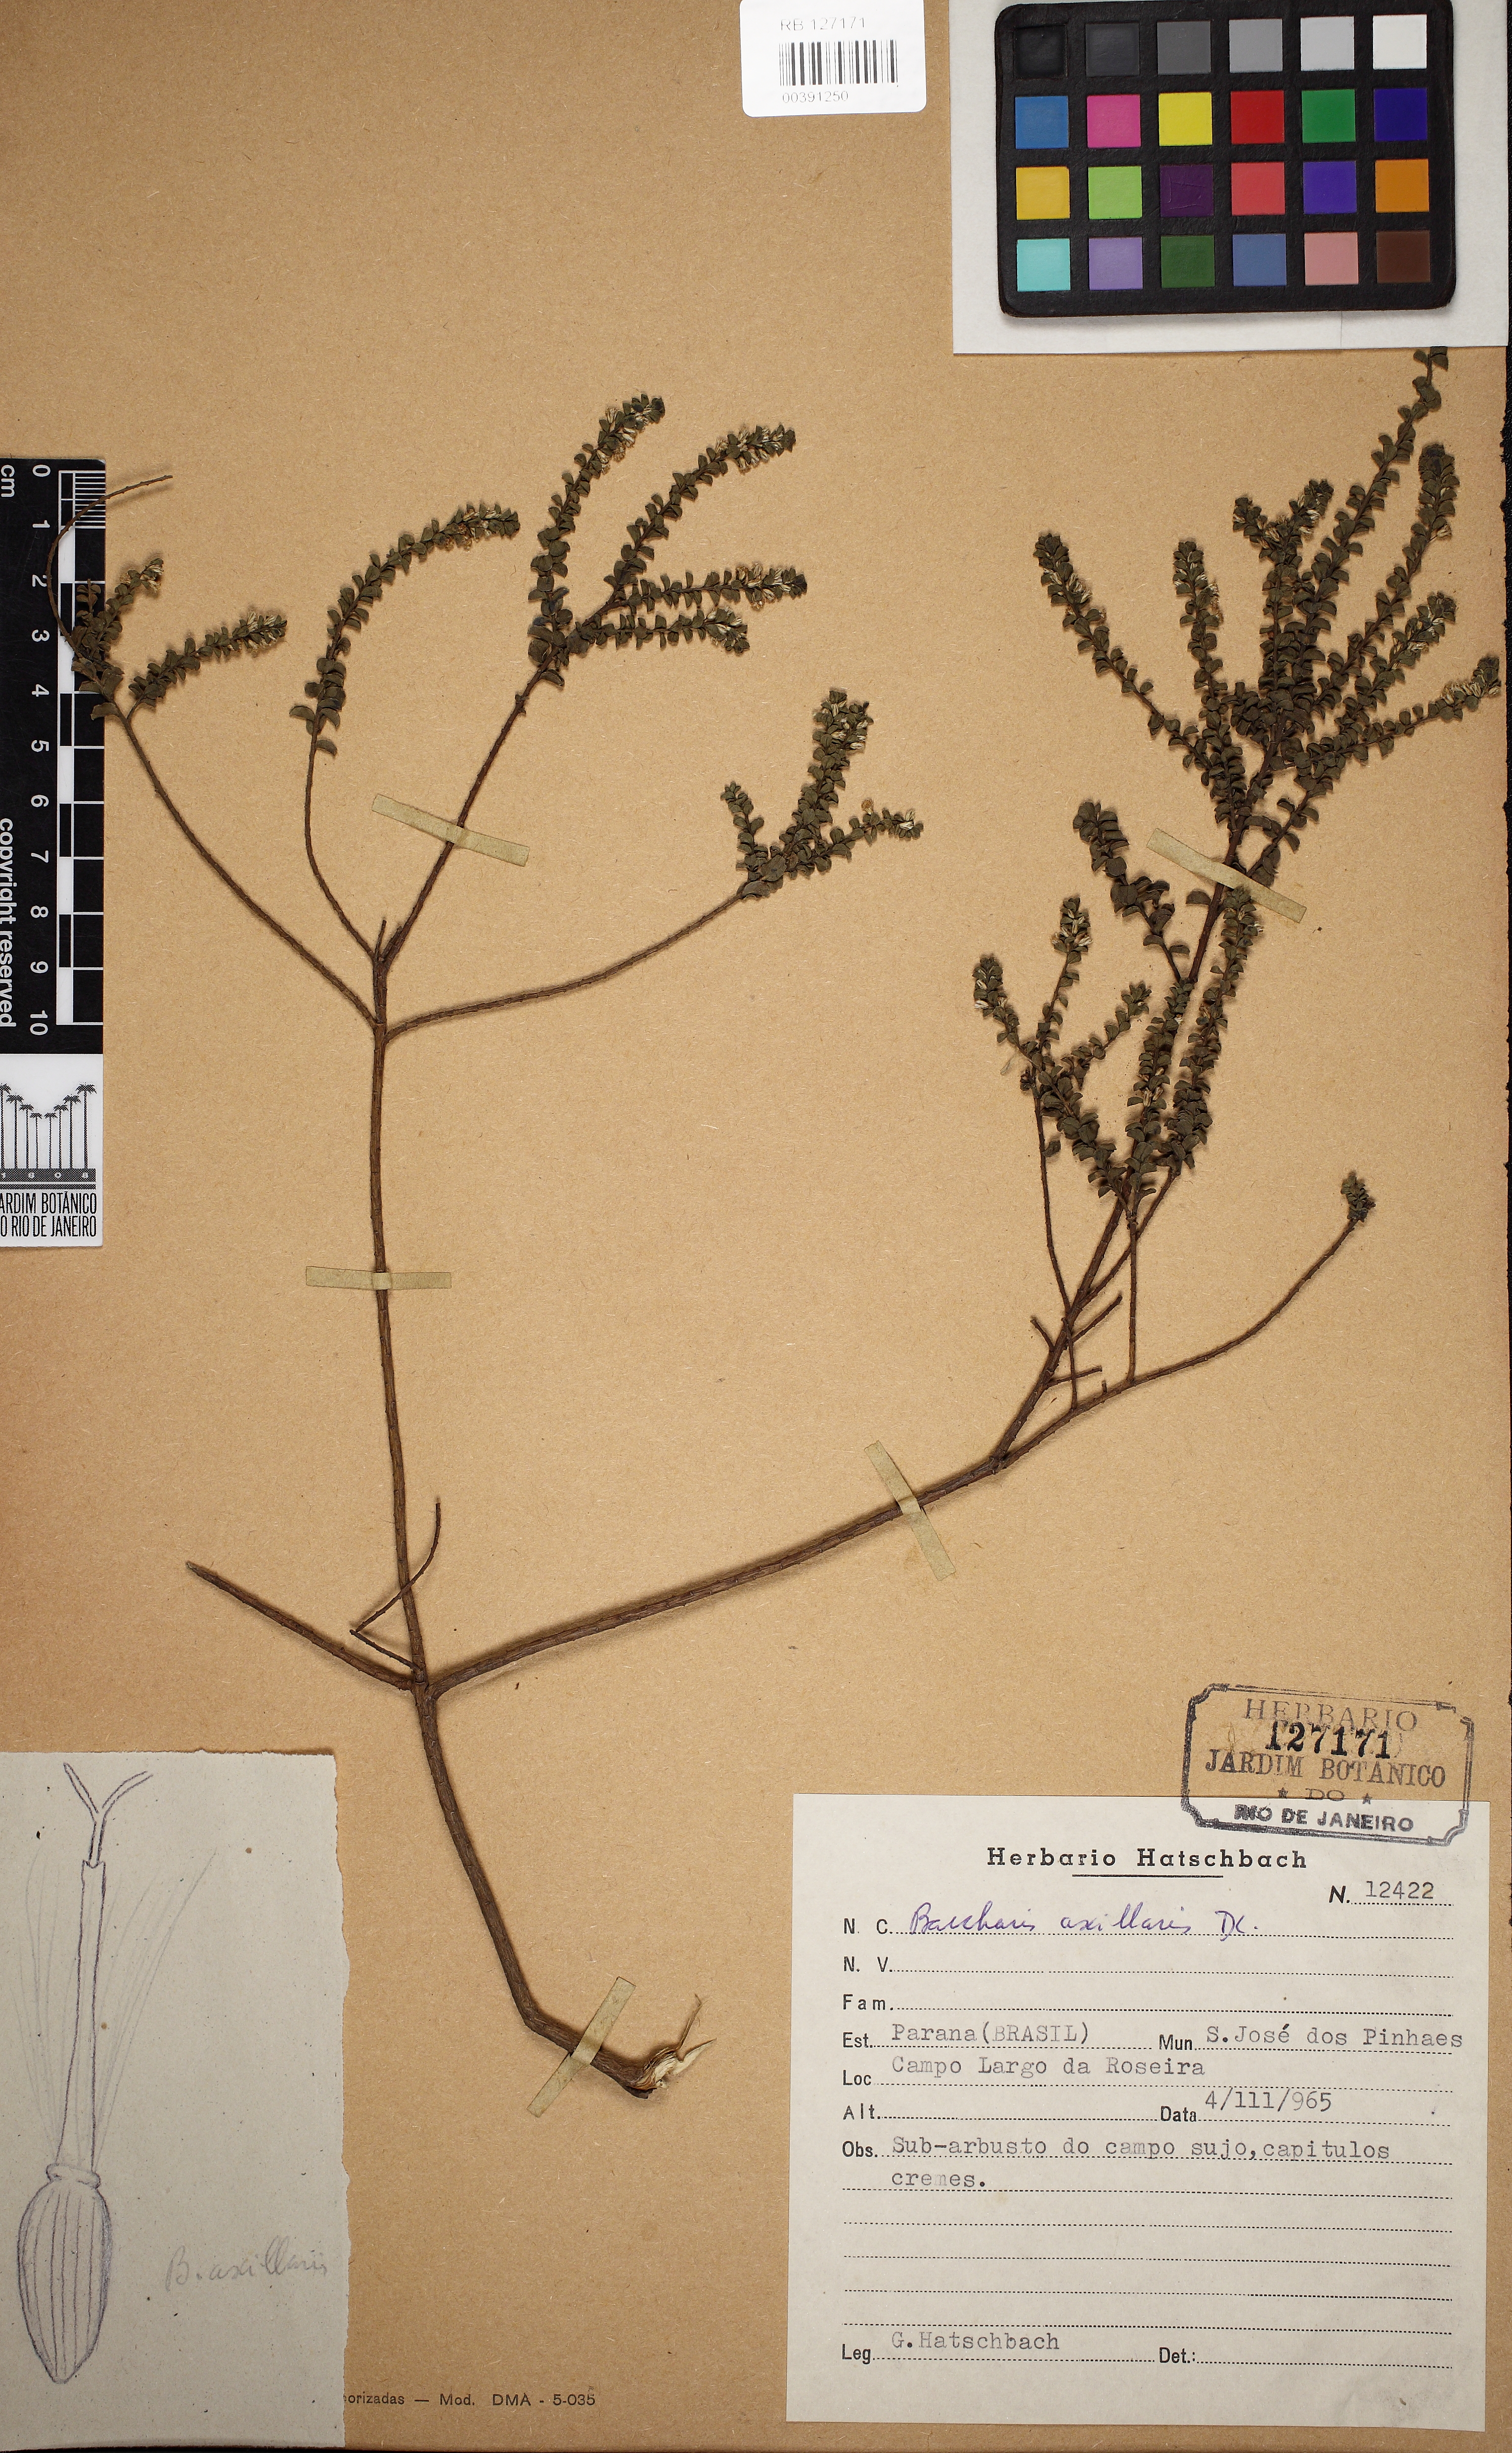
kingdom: Plantae
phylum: Tracheophyta
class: Magnoliopsida
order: Asterales
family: Asteraceae
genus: Baccharis
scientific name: Baccharis axillaris
